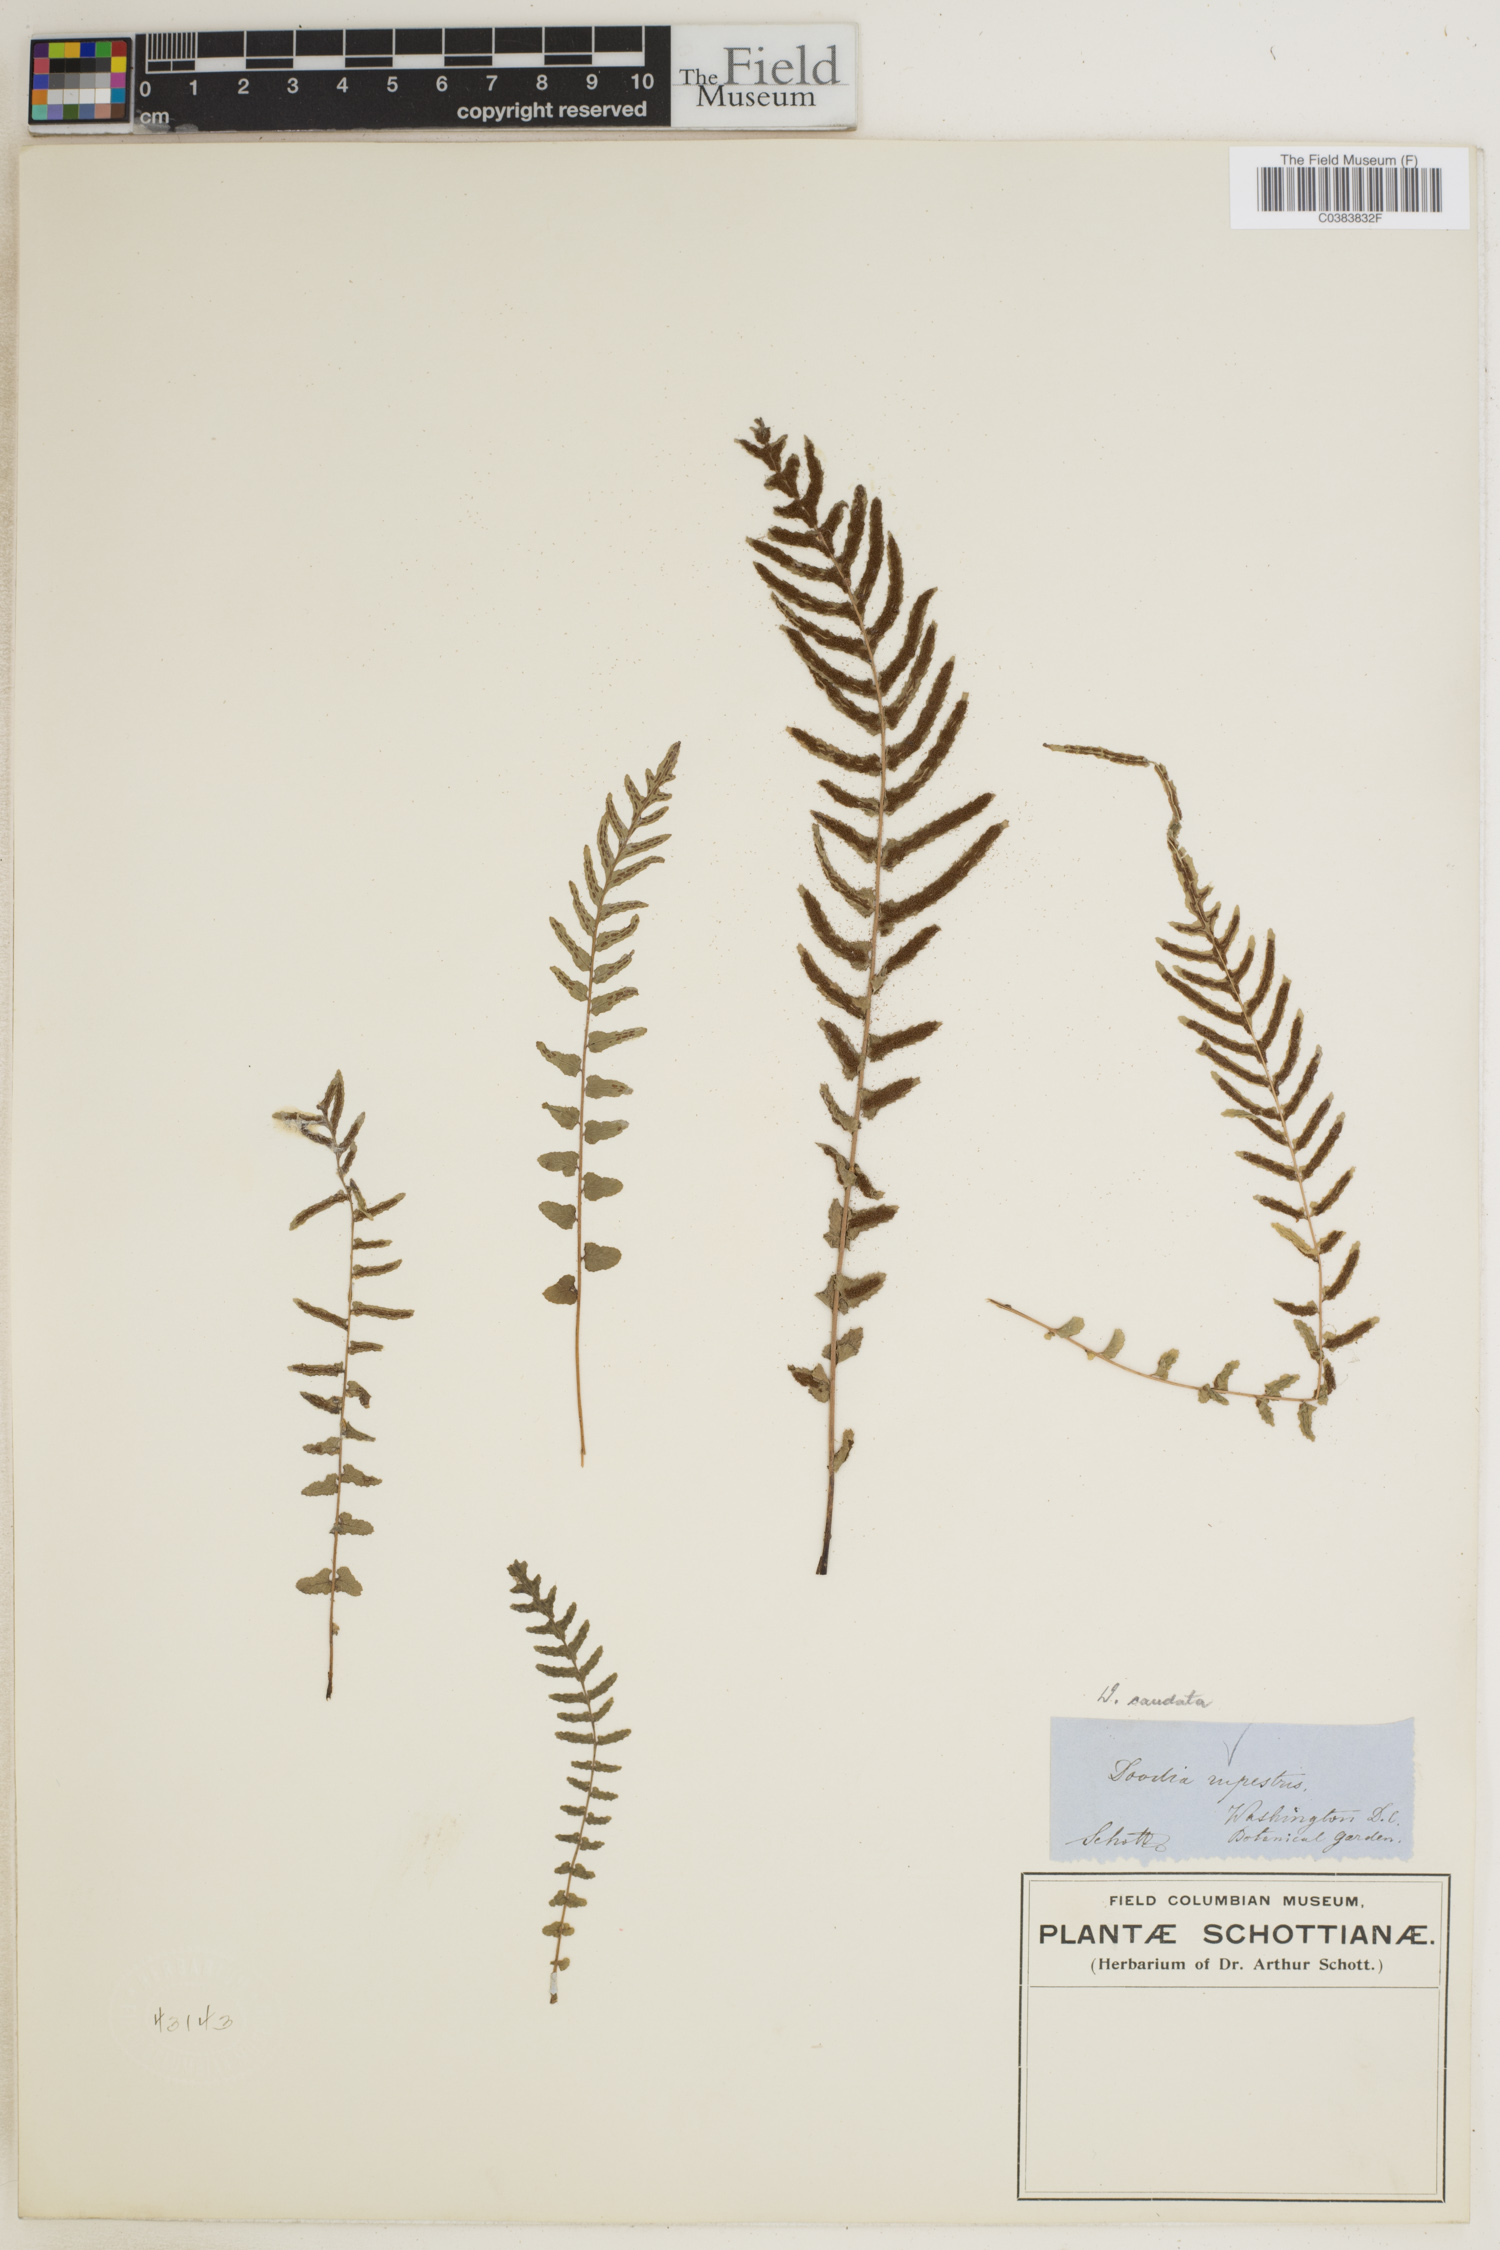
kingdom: Plantae
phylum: Tracheophyta
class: Polypodiopsida
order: Polypodiales
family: Blechnaceae
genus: Doodia
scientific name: Doodia caudata
